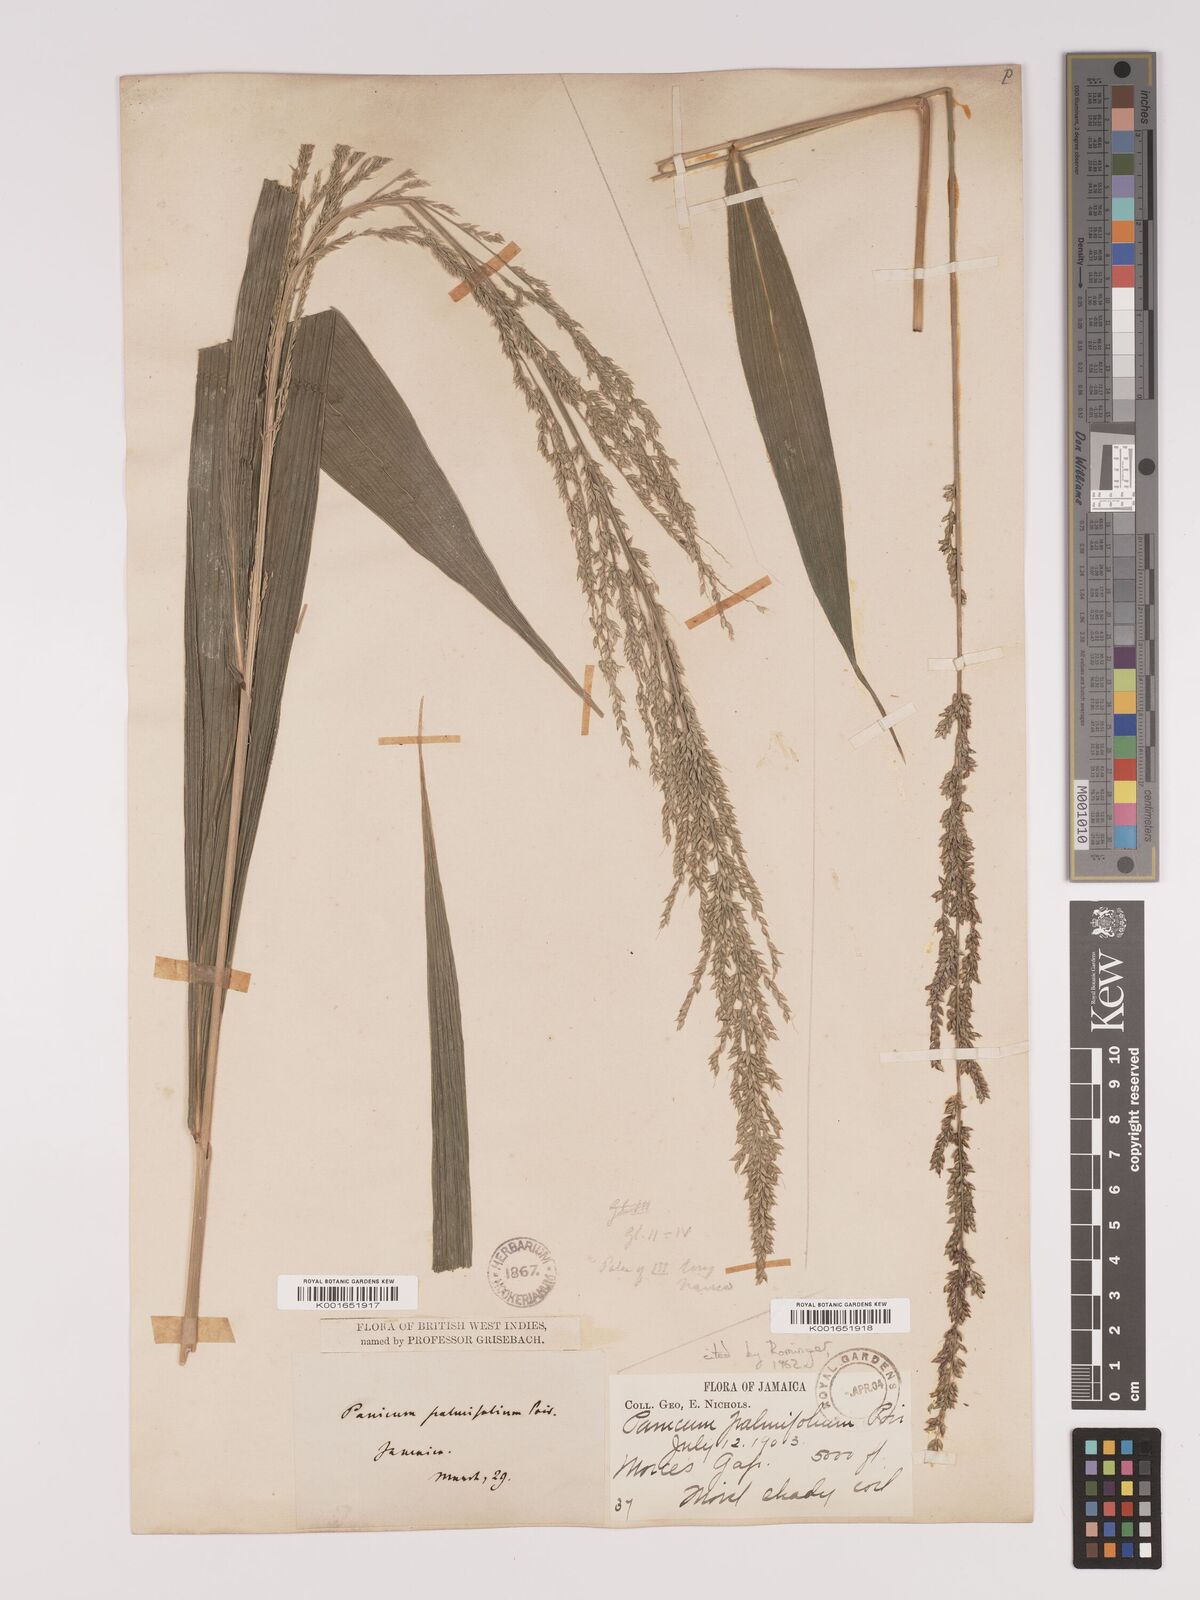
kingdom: Plantae
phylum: Tracheophyta
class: Liliopsida
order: Poales
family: Poaceae
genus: Setaria
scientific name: Setaria palmifolia
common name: Broadleaved bristlegrass
